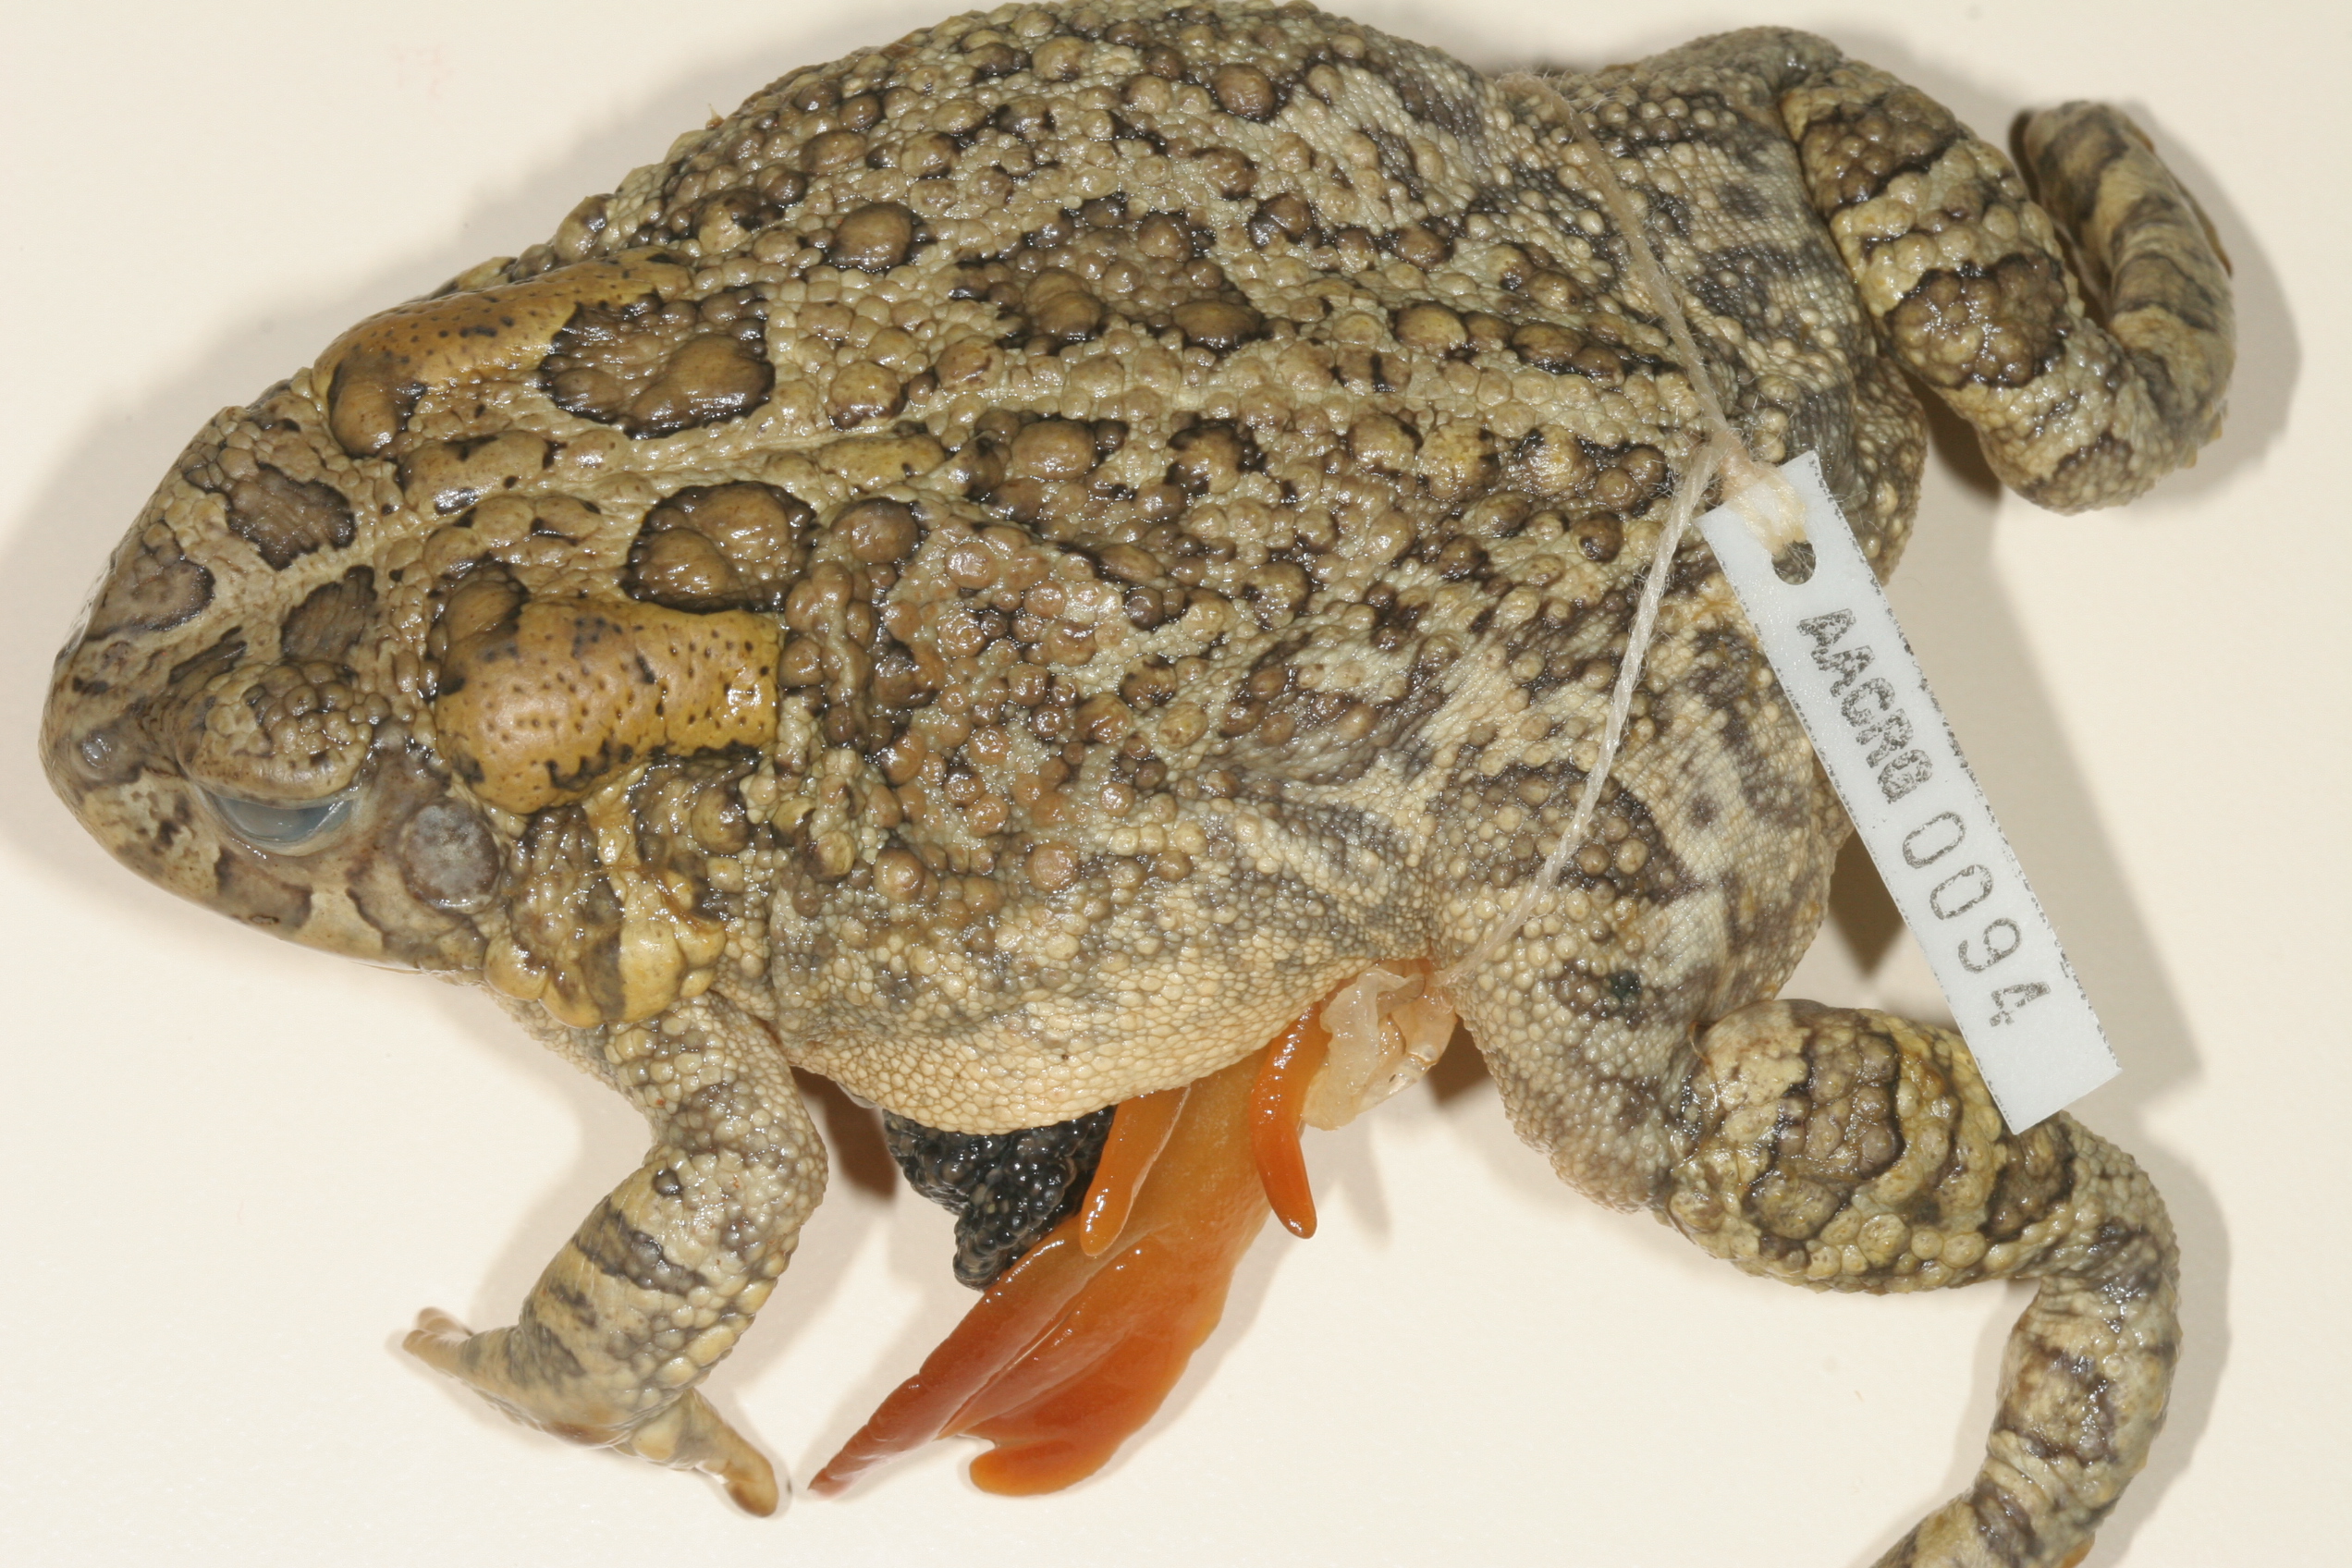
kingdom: Animalia
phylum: Chordata
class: Amphibia
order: Anura
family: Bufonidae
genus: Sclerophrys
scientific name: Sclerophrys gutturalis
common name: African common toad
